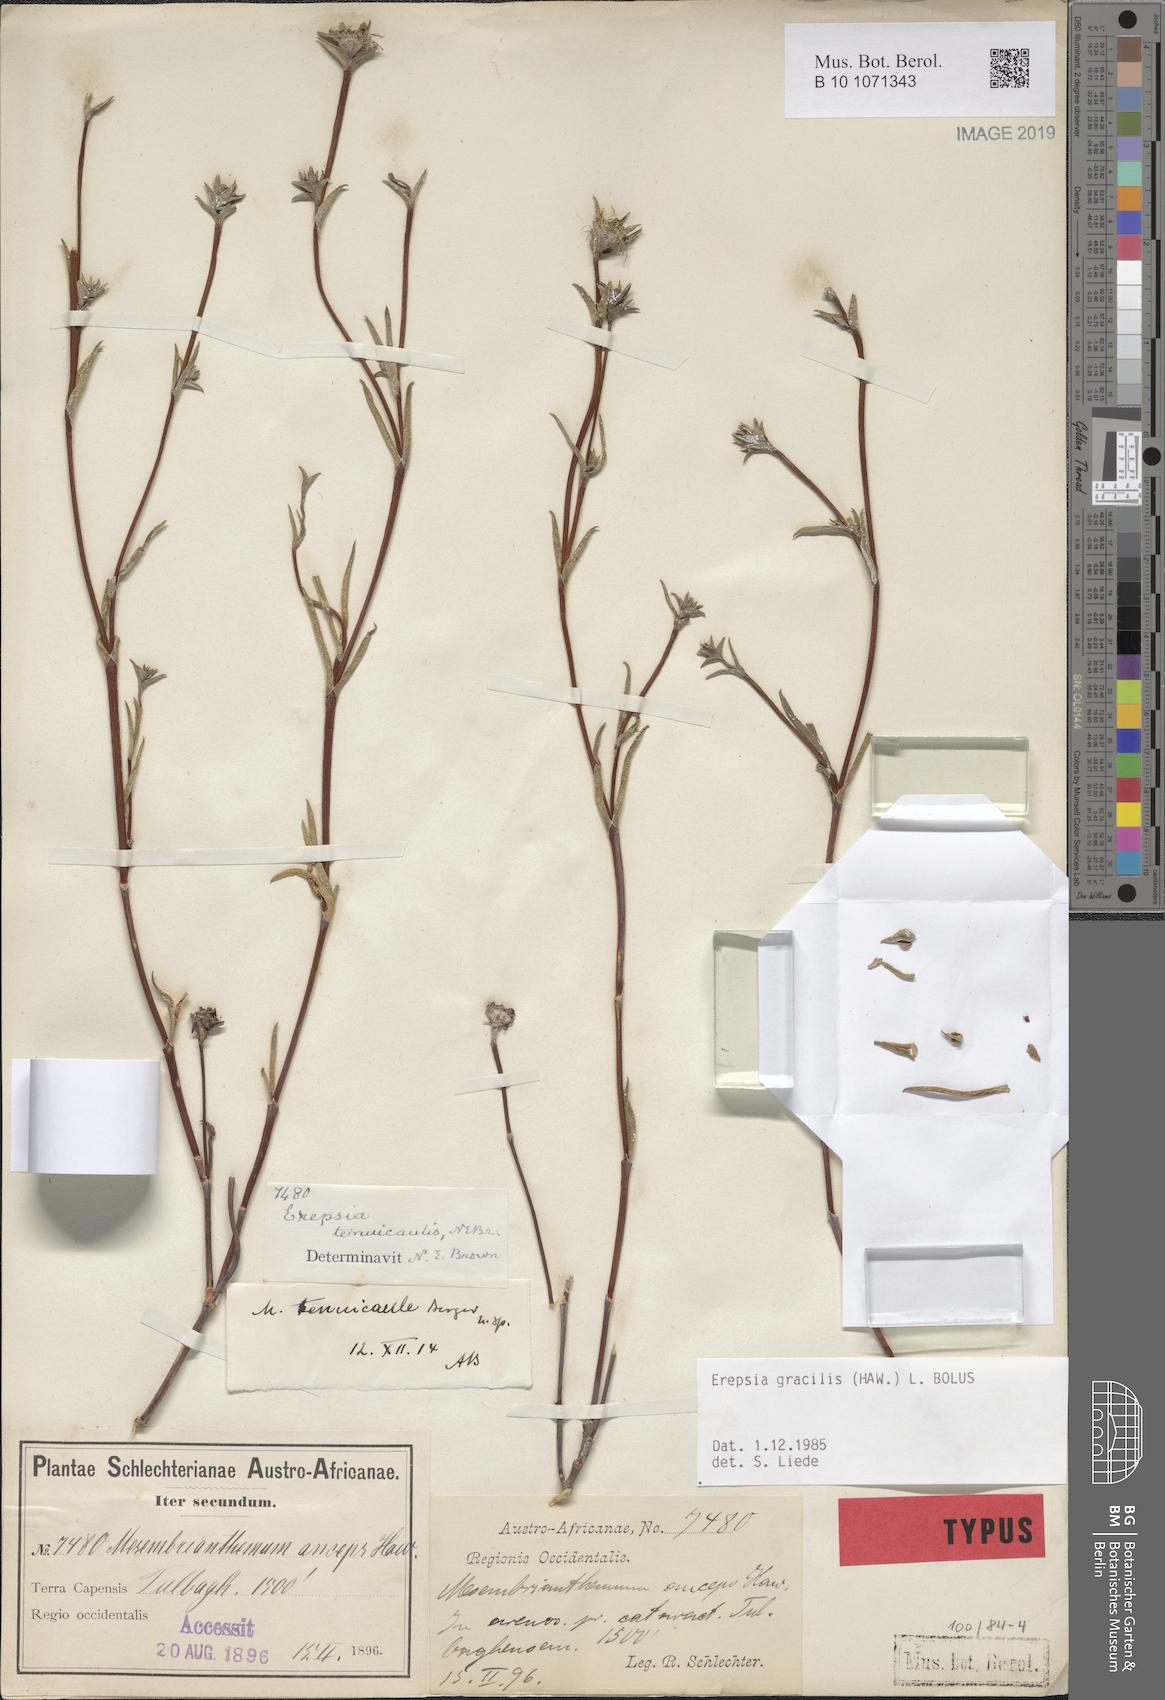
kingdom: Plantae
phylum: Tracheophyta
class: Magnoliopsida
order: Caryophyllales
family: Aizoaceae
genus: Erepsia
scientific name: Erepsia gracilis
